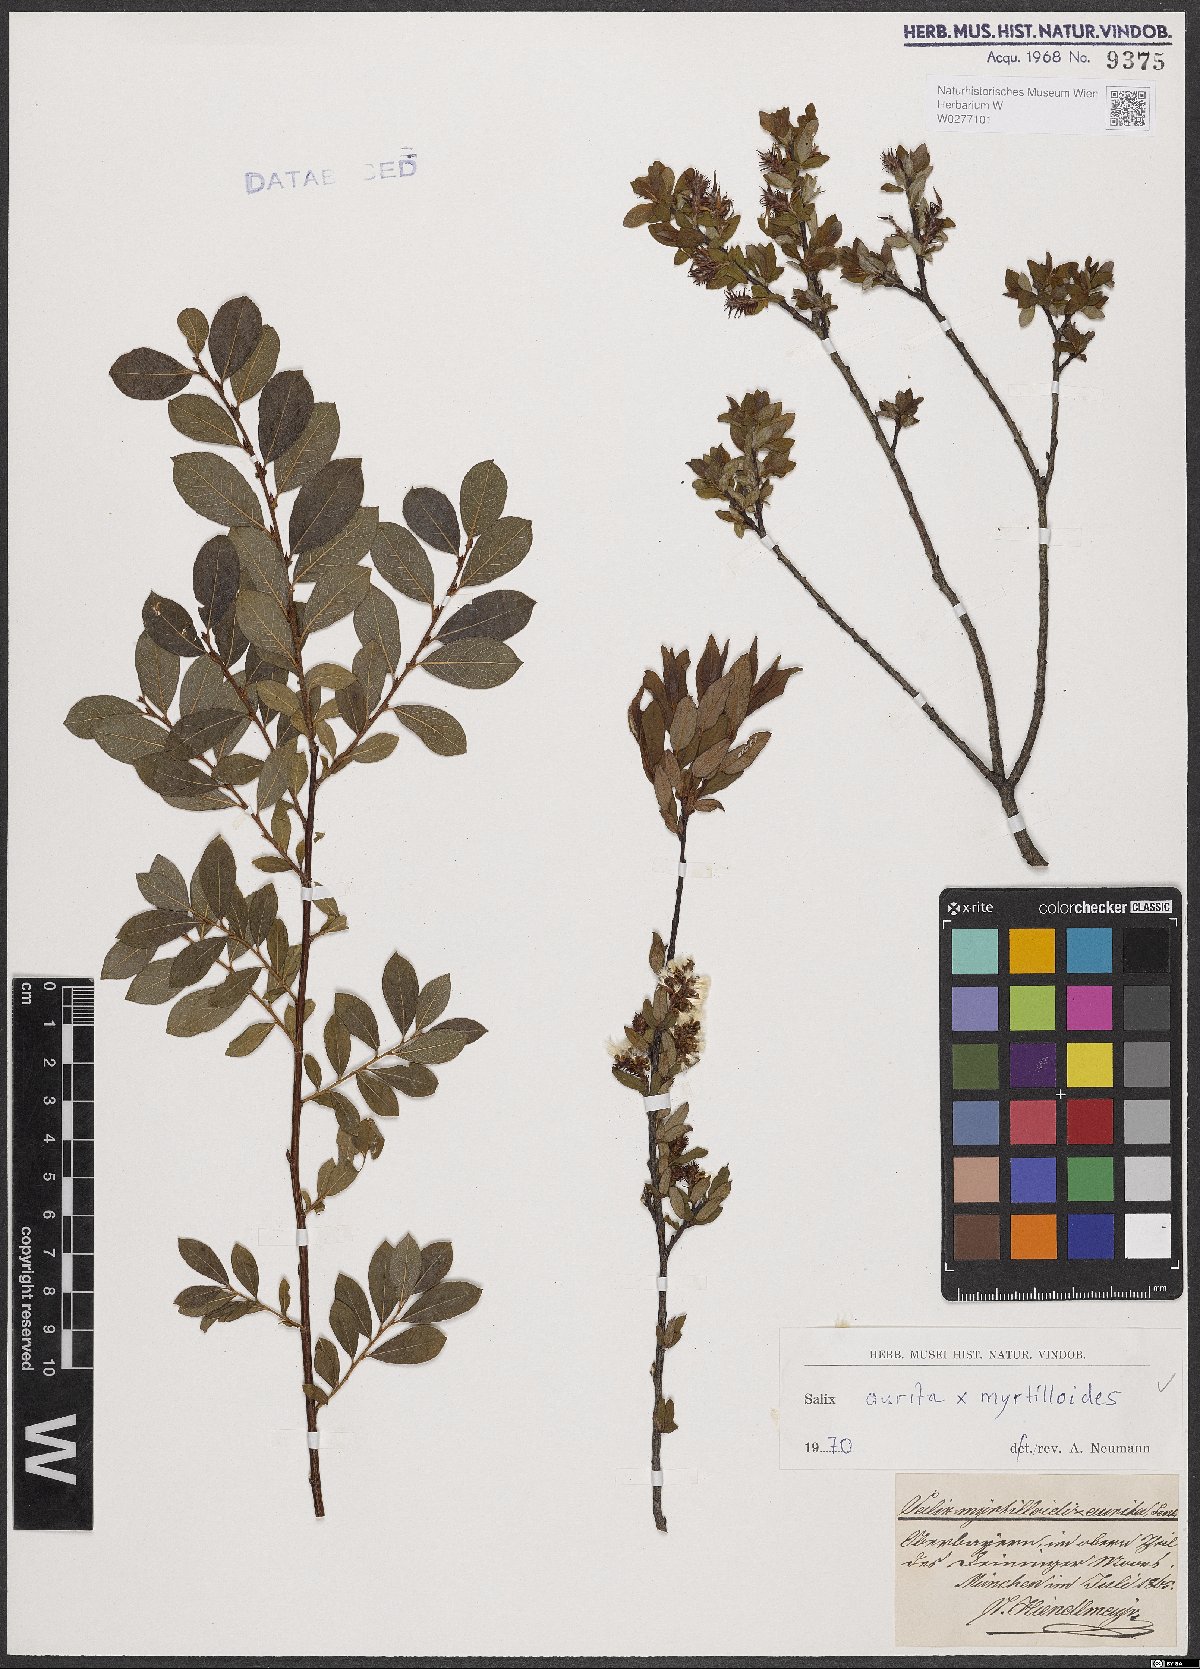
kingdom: Plantae
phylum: Tracheophyta
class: Magnoliopsida
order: Malpighiales
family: Salicaceae
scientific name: Salicaceae
